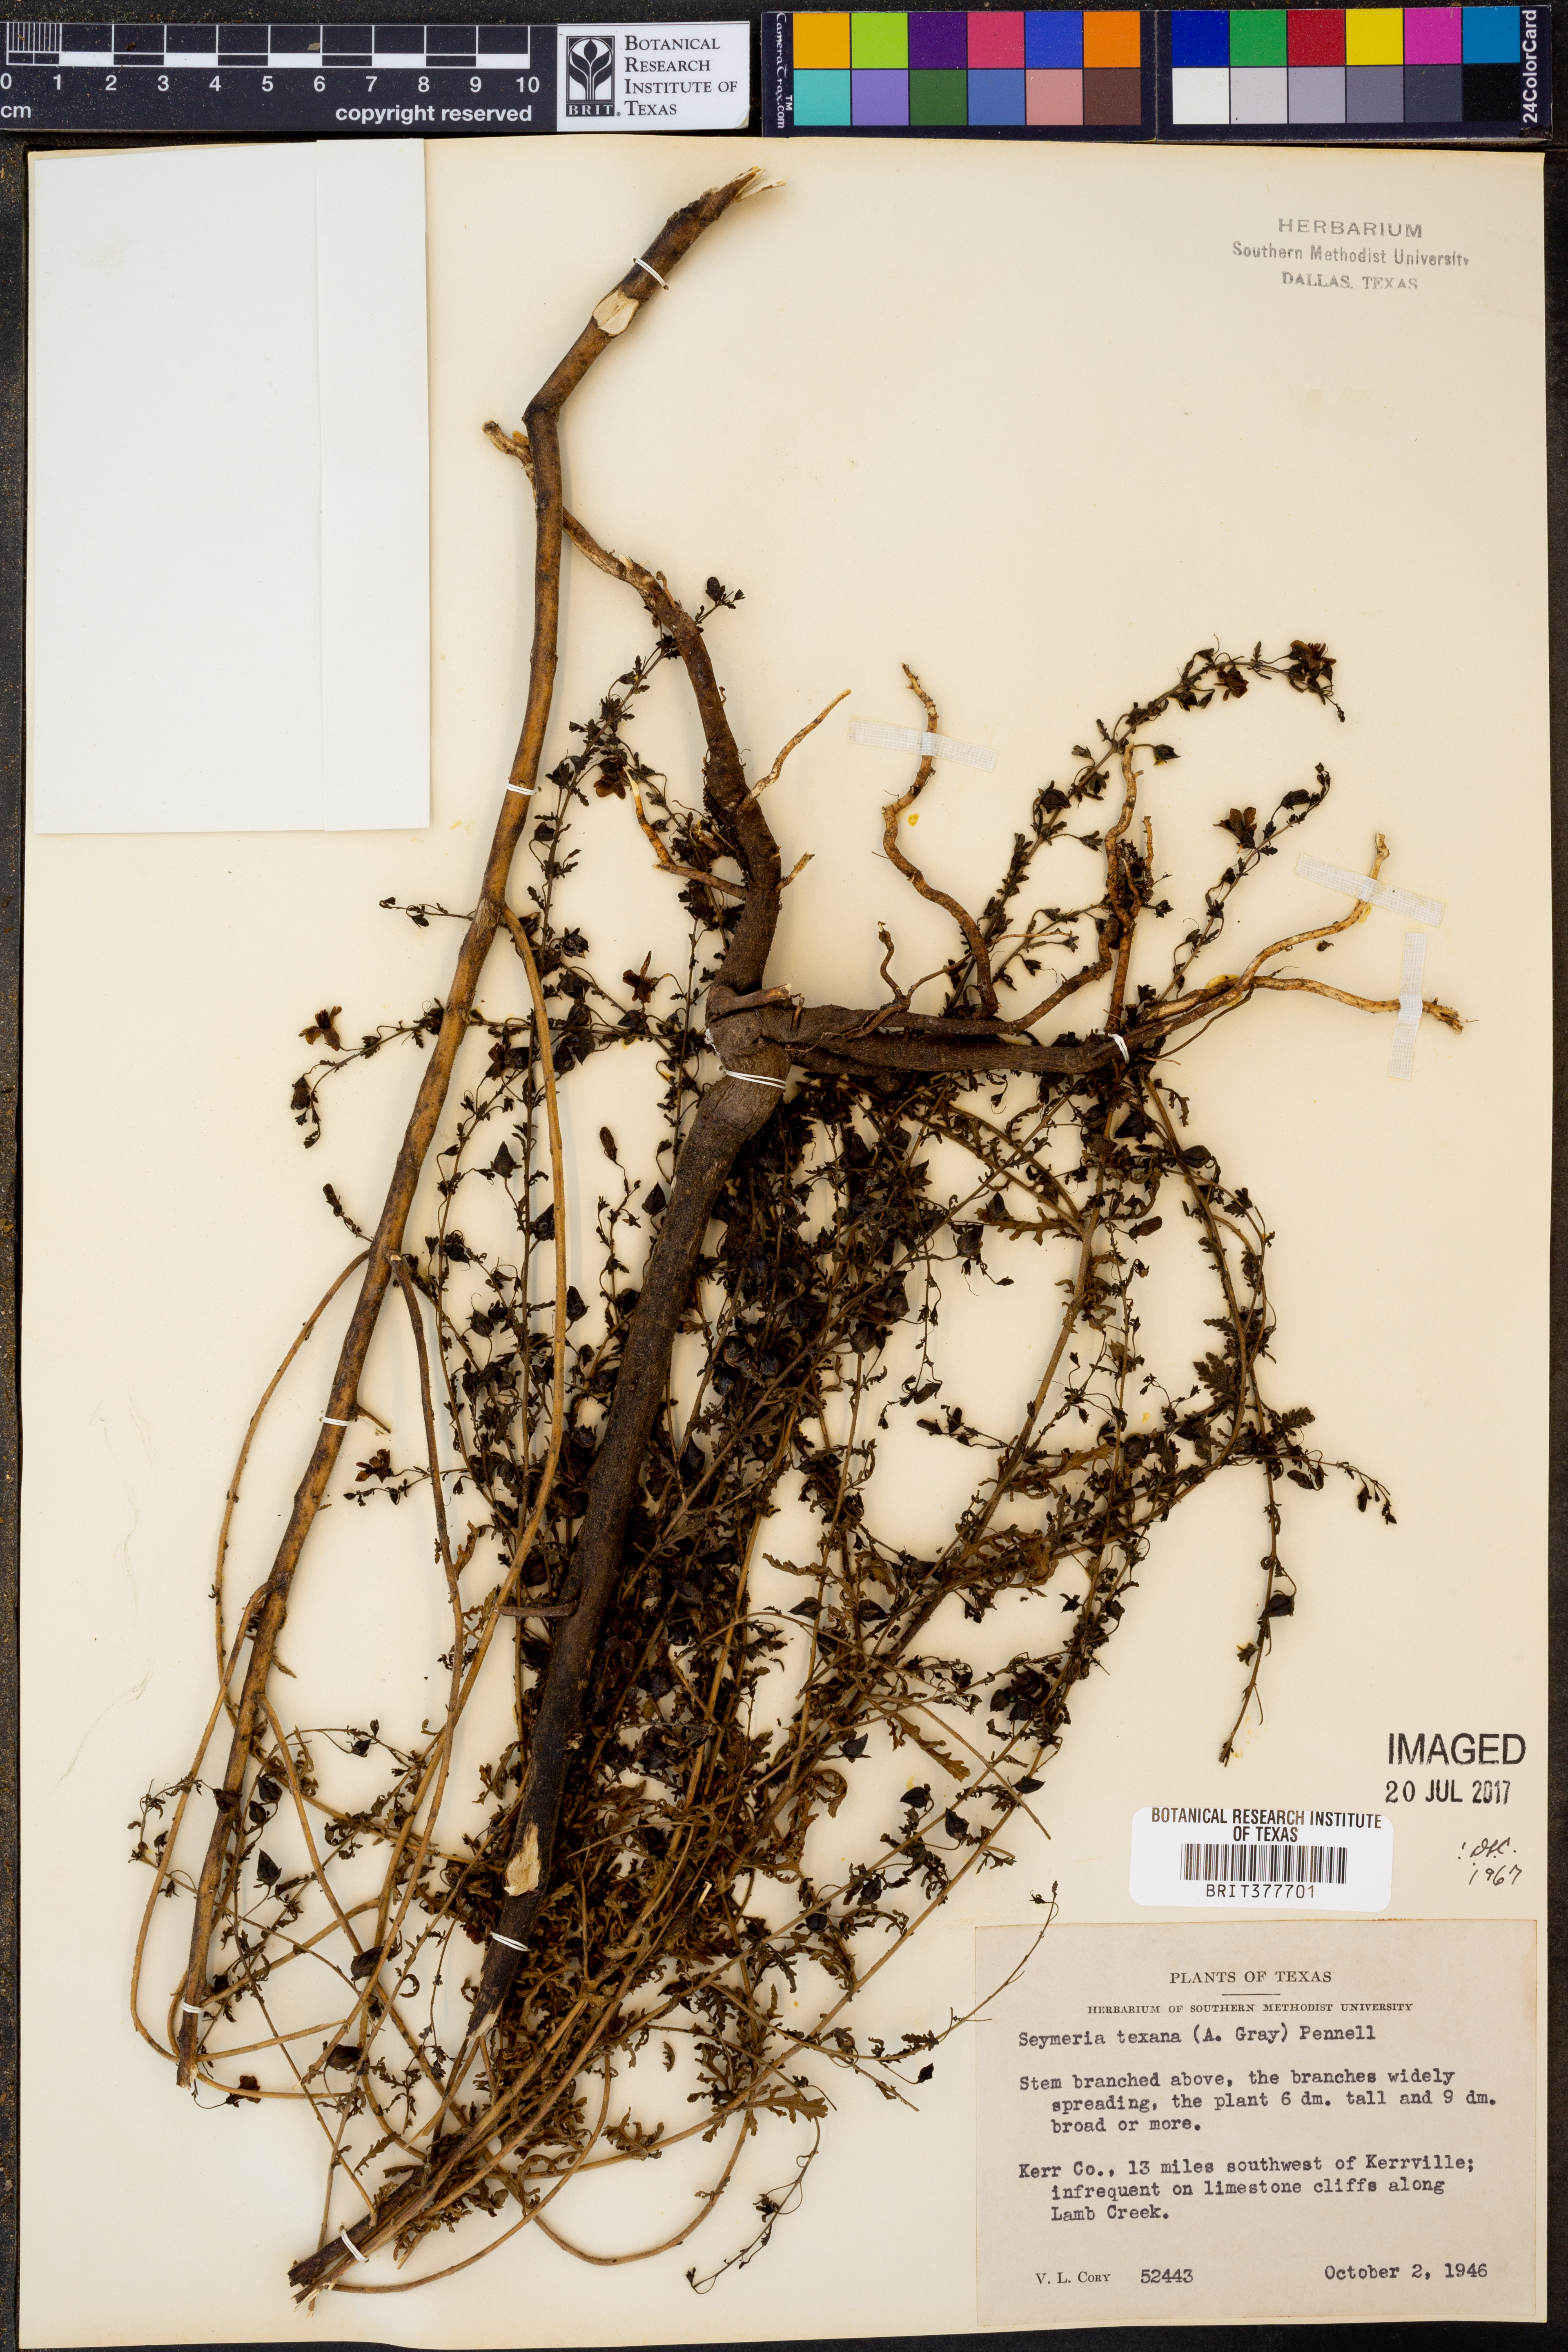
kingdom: Plantae
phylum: Tracheophyta
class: Magnoliopsida
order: Lamiales
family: Orobanchaceae
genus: Seymeria
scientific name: Seymeria bipinnatisecta
